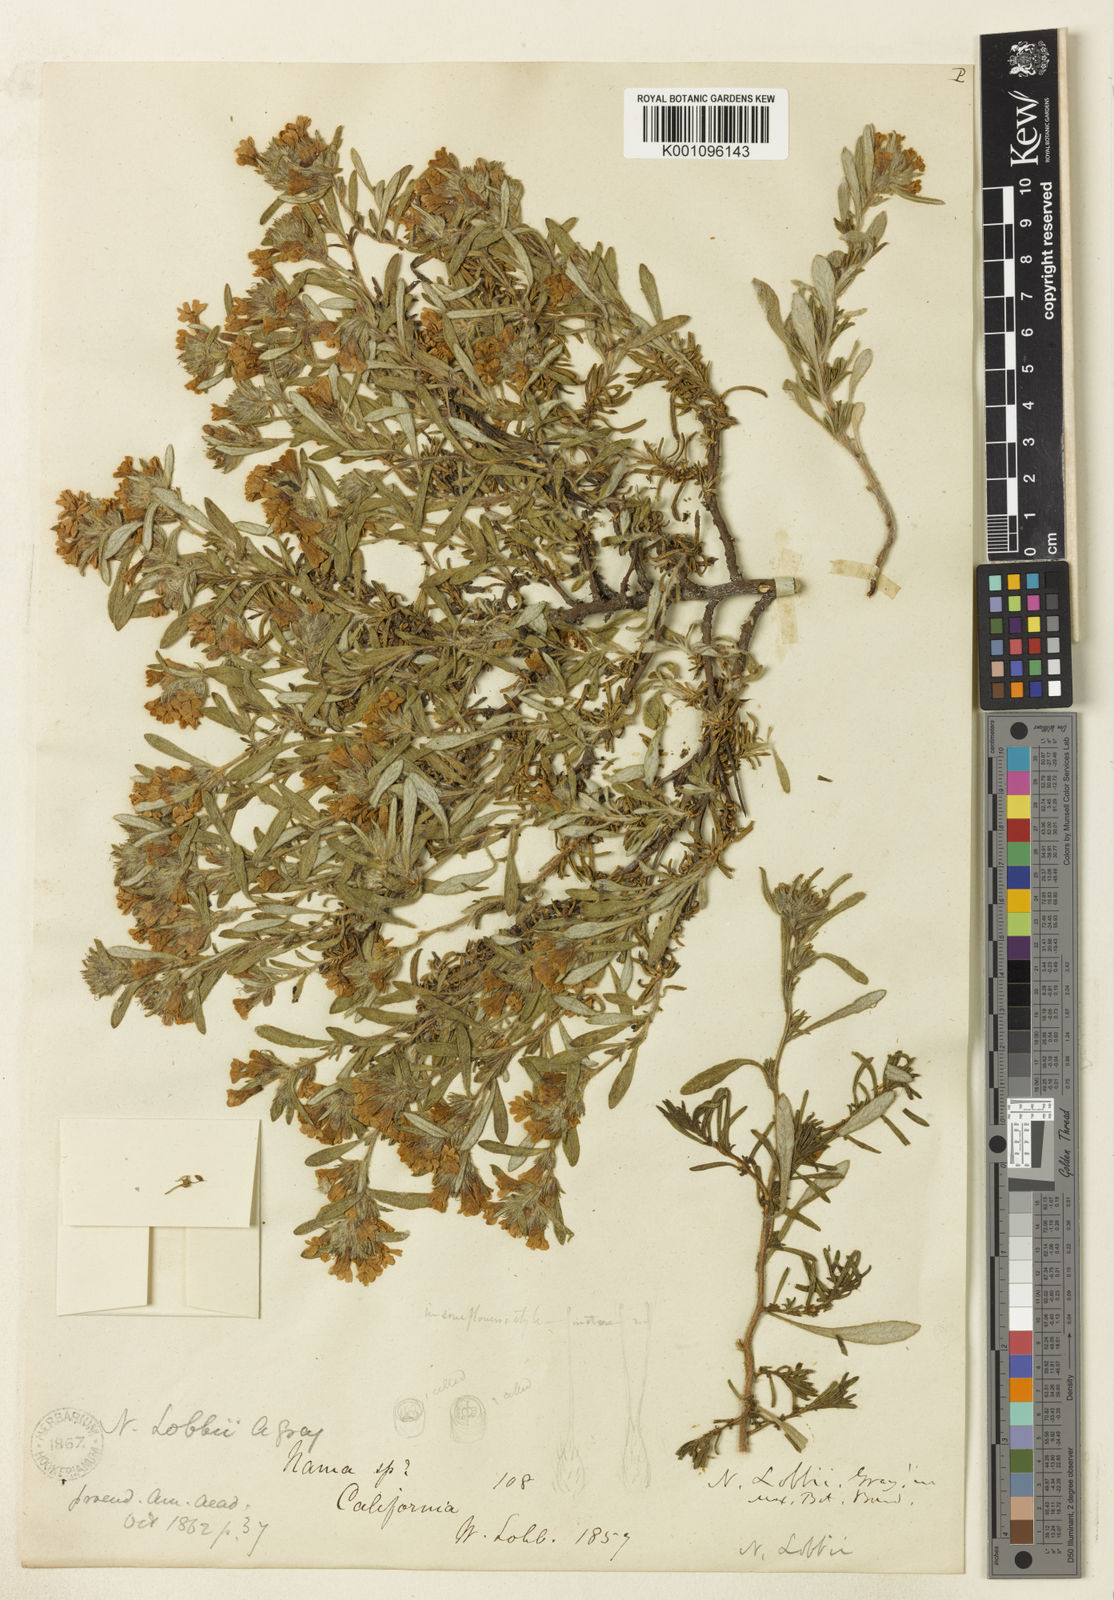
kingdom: Plantae
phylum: Tracheophyta
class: Magnoliopsida
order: Boraginales
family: Namaceae
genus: Nama
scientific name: Nama lobbii
